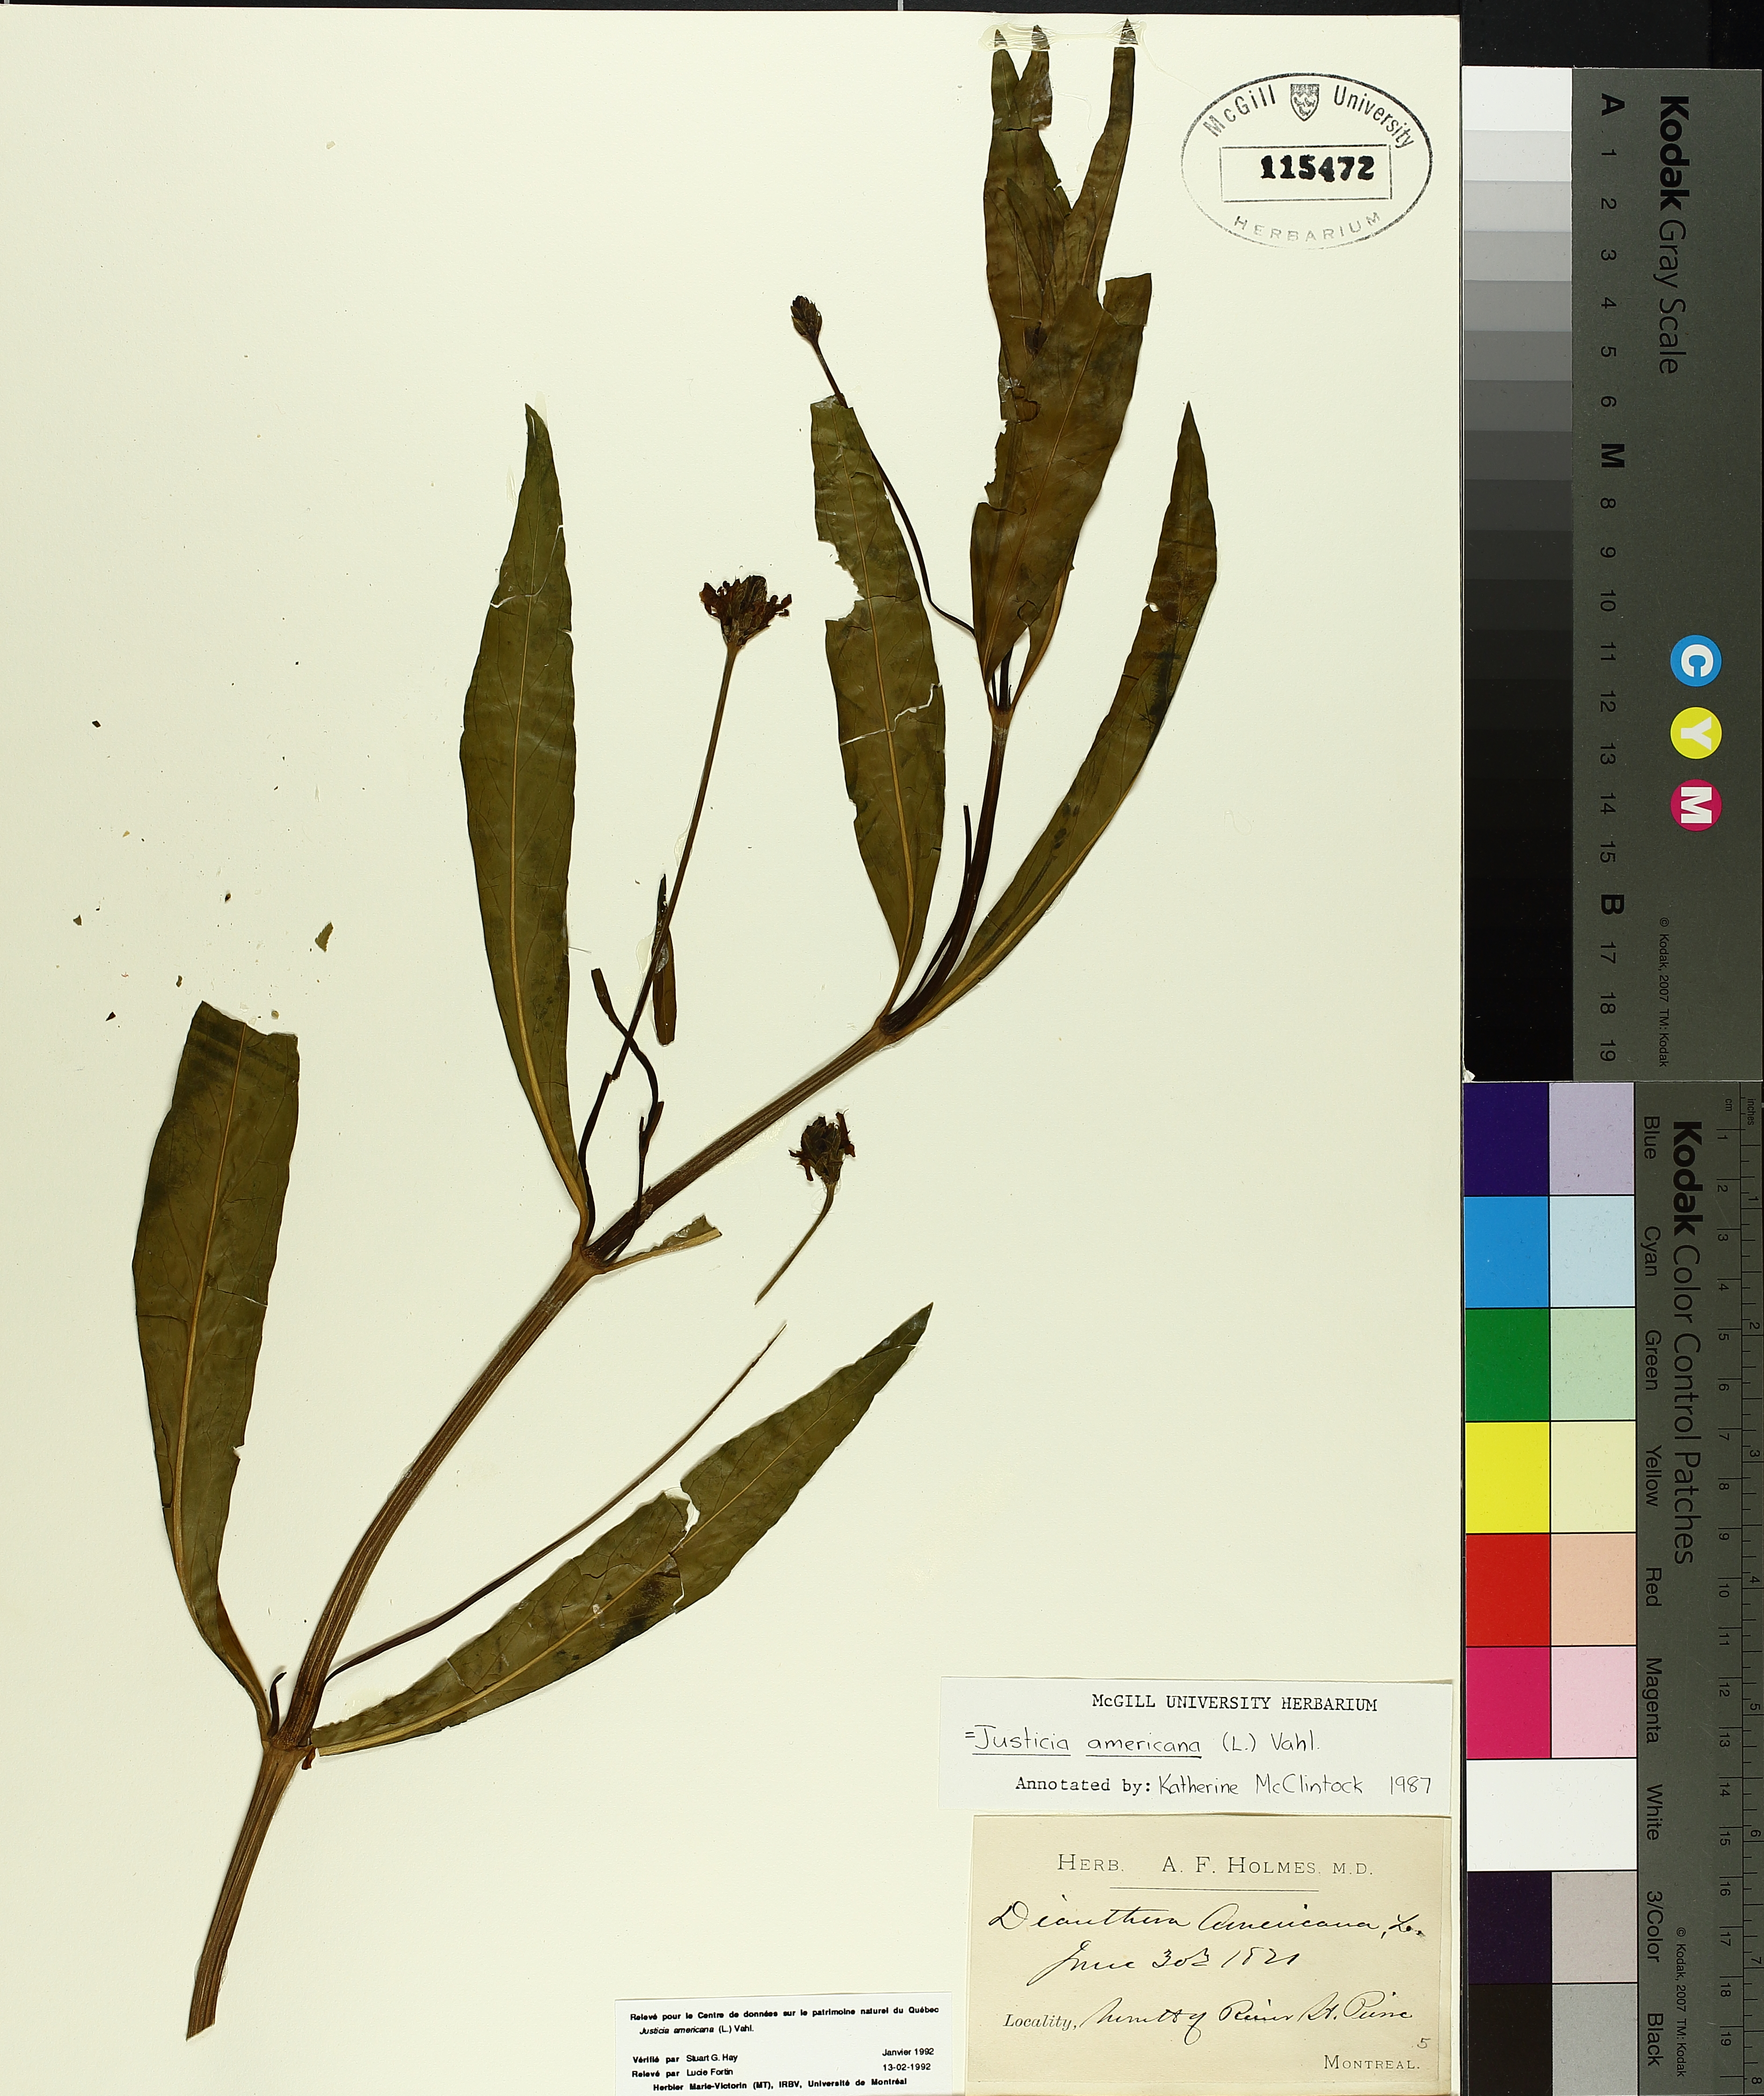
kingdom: Plantae
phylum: Tracheophyta
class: Magnoliopsida
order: Lamiales
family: Acanthaceae
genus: Dianthera
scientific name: Dianthera americana
